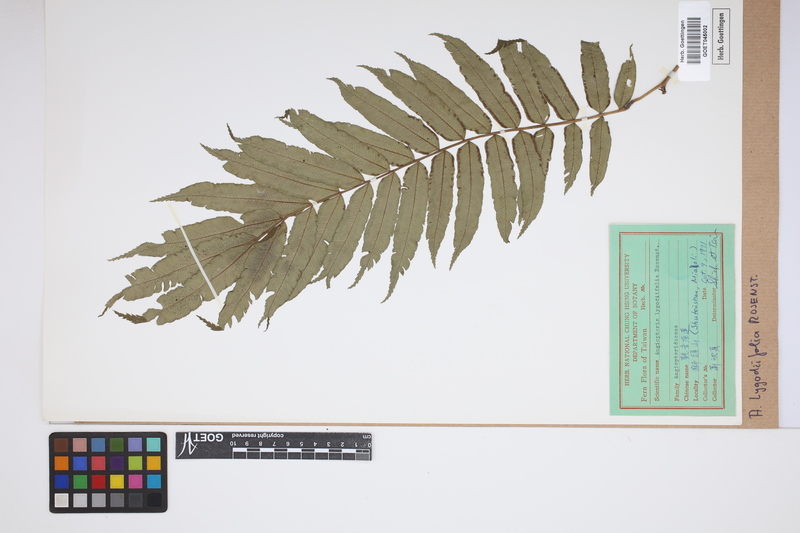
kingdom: Plantae
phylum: Tracheophyta
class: Polypodiopsida
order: Marattiales
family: Marattiaceae
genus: Angiopteris
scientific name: Angiopteris lygodiifolia
